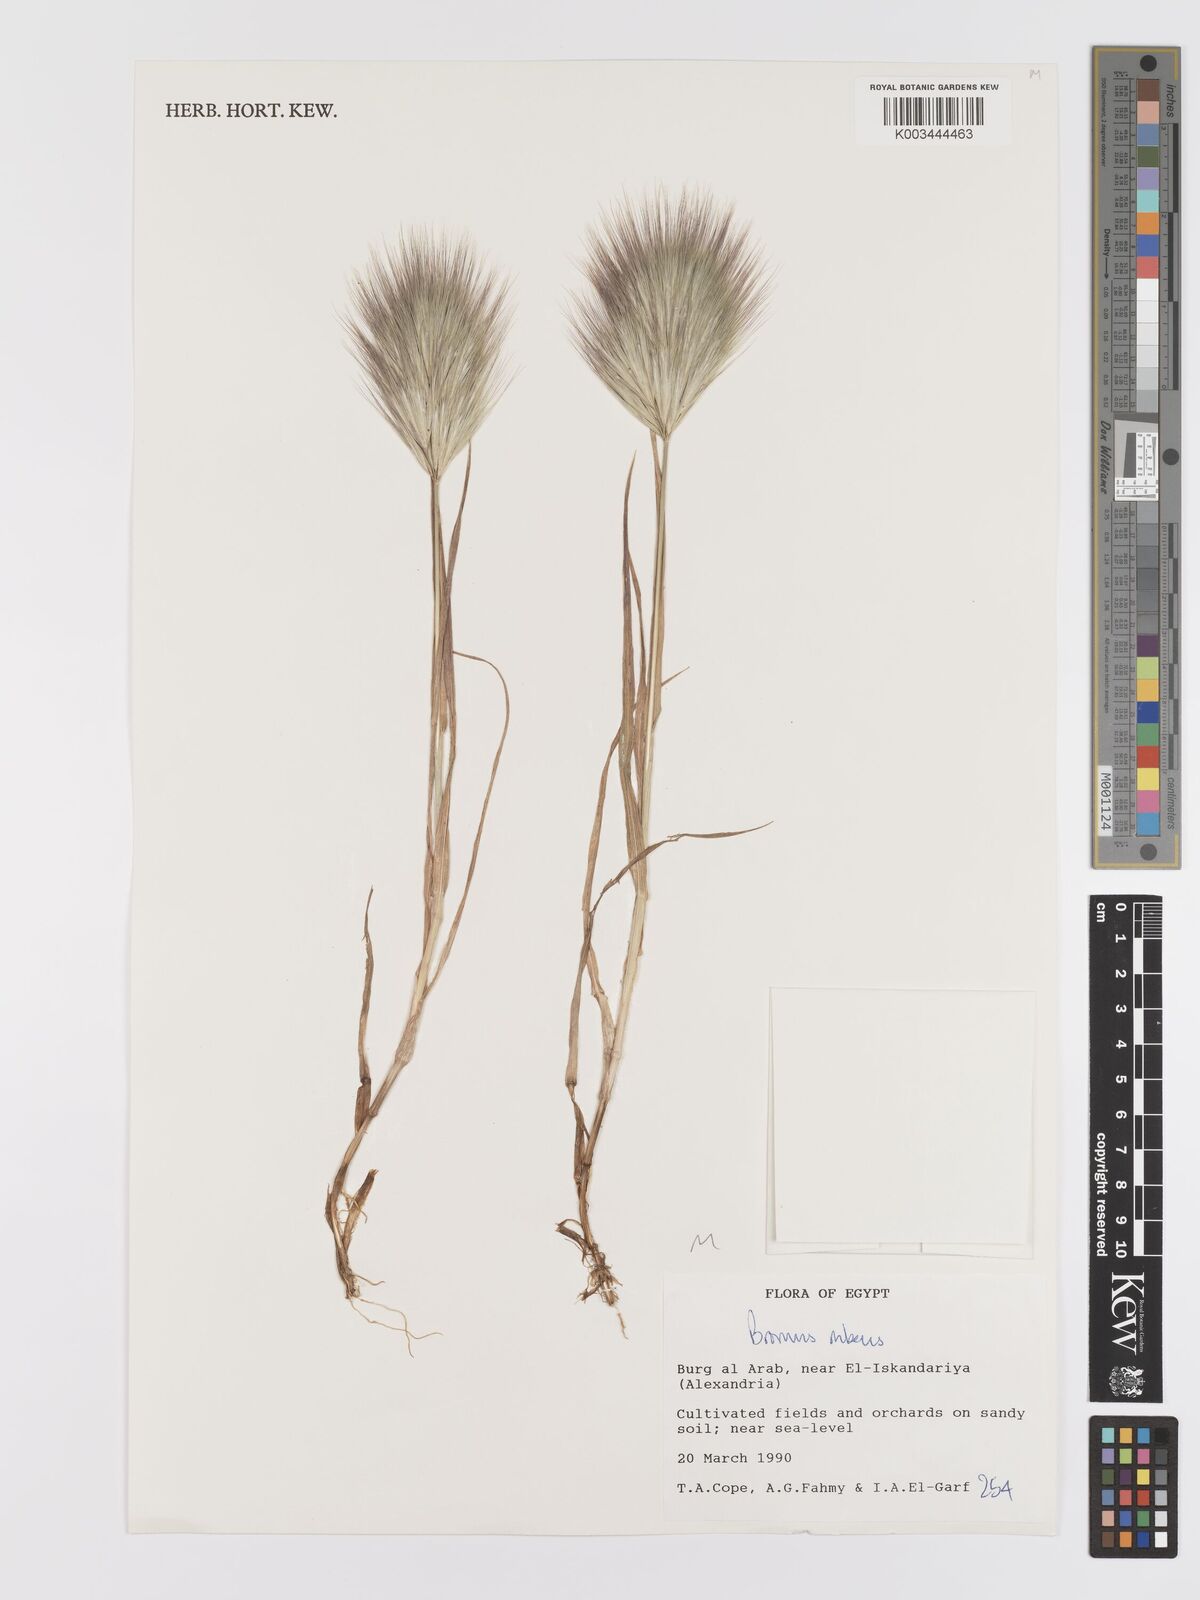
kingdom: Plantae
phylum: Tracheophyta
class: Liliopsida
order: Poales
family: Poaceae
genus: Bromus
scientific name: Bromus rubens
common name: Red brome
